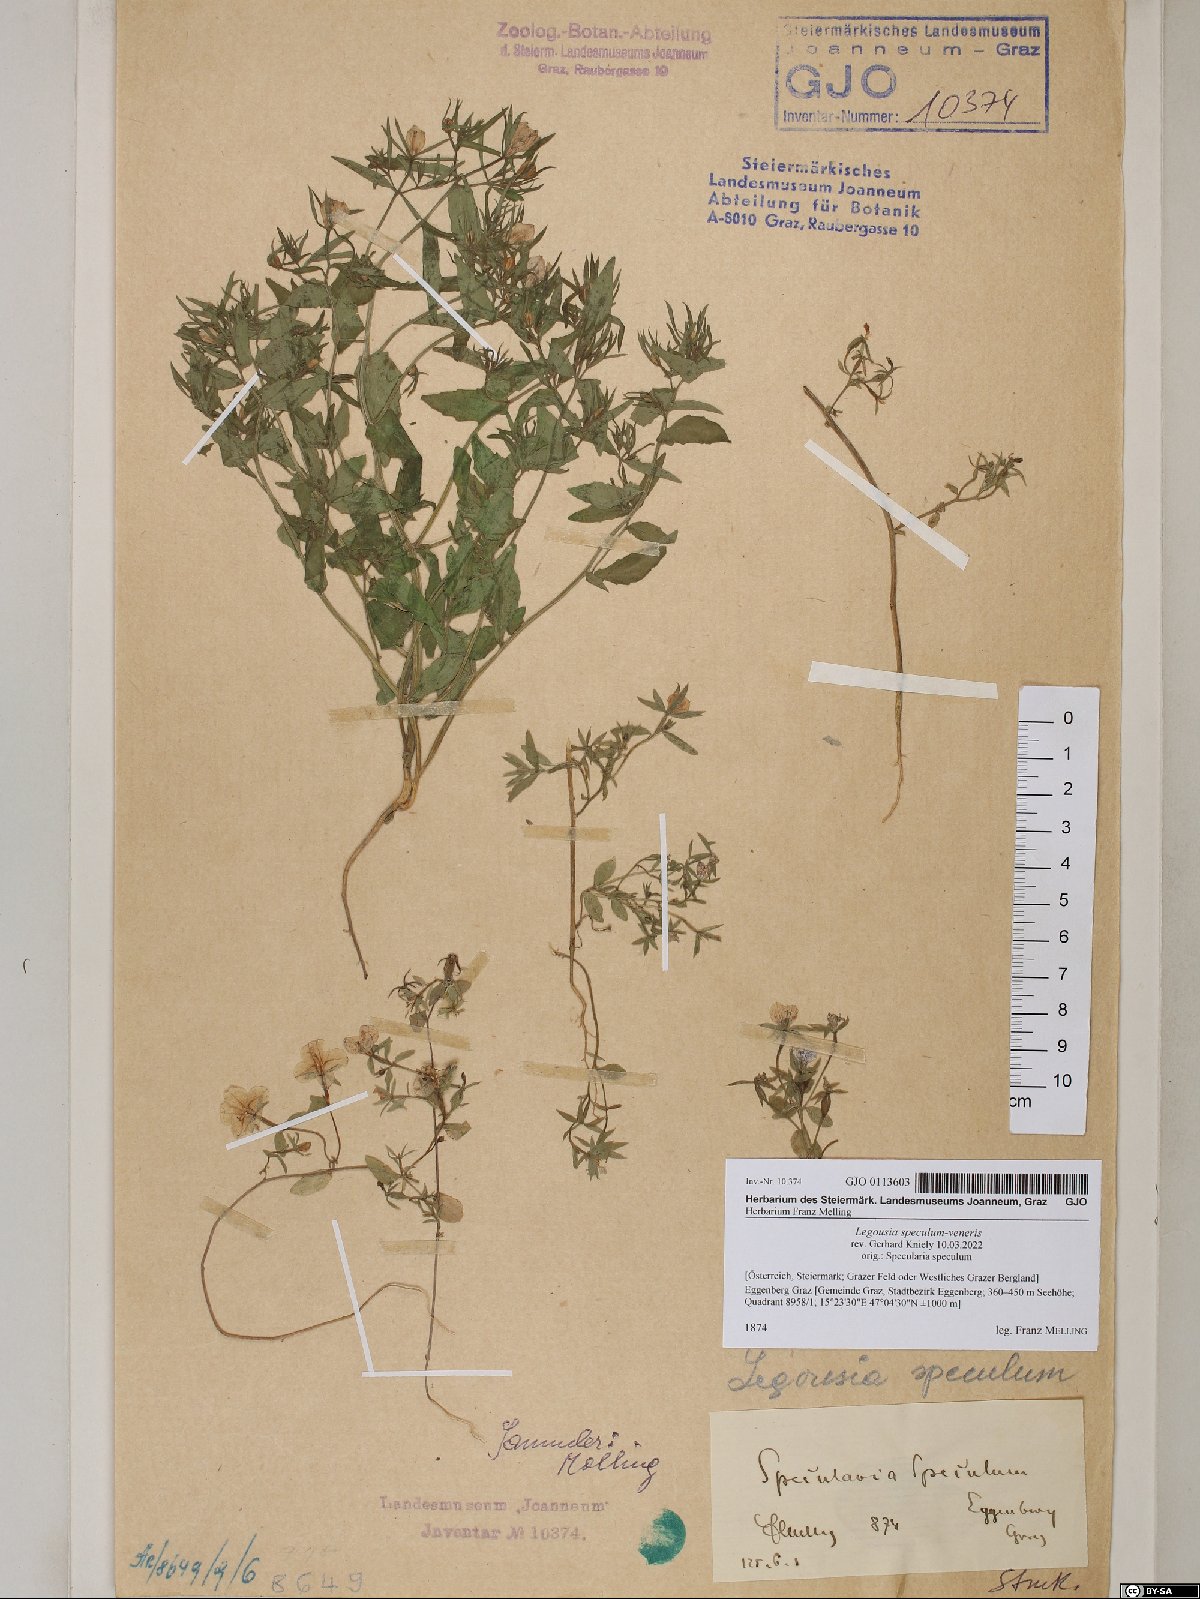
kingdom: Plantae
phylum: Tracheophyta
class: Magnoliopsida
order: Asterales
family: Campanulaceae
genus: Legousia
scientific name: Legousia speculum-veneris
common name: Large venus's-looking-glass
